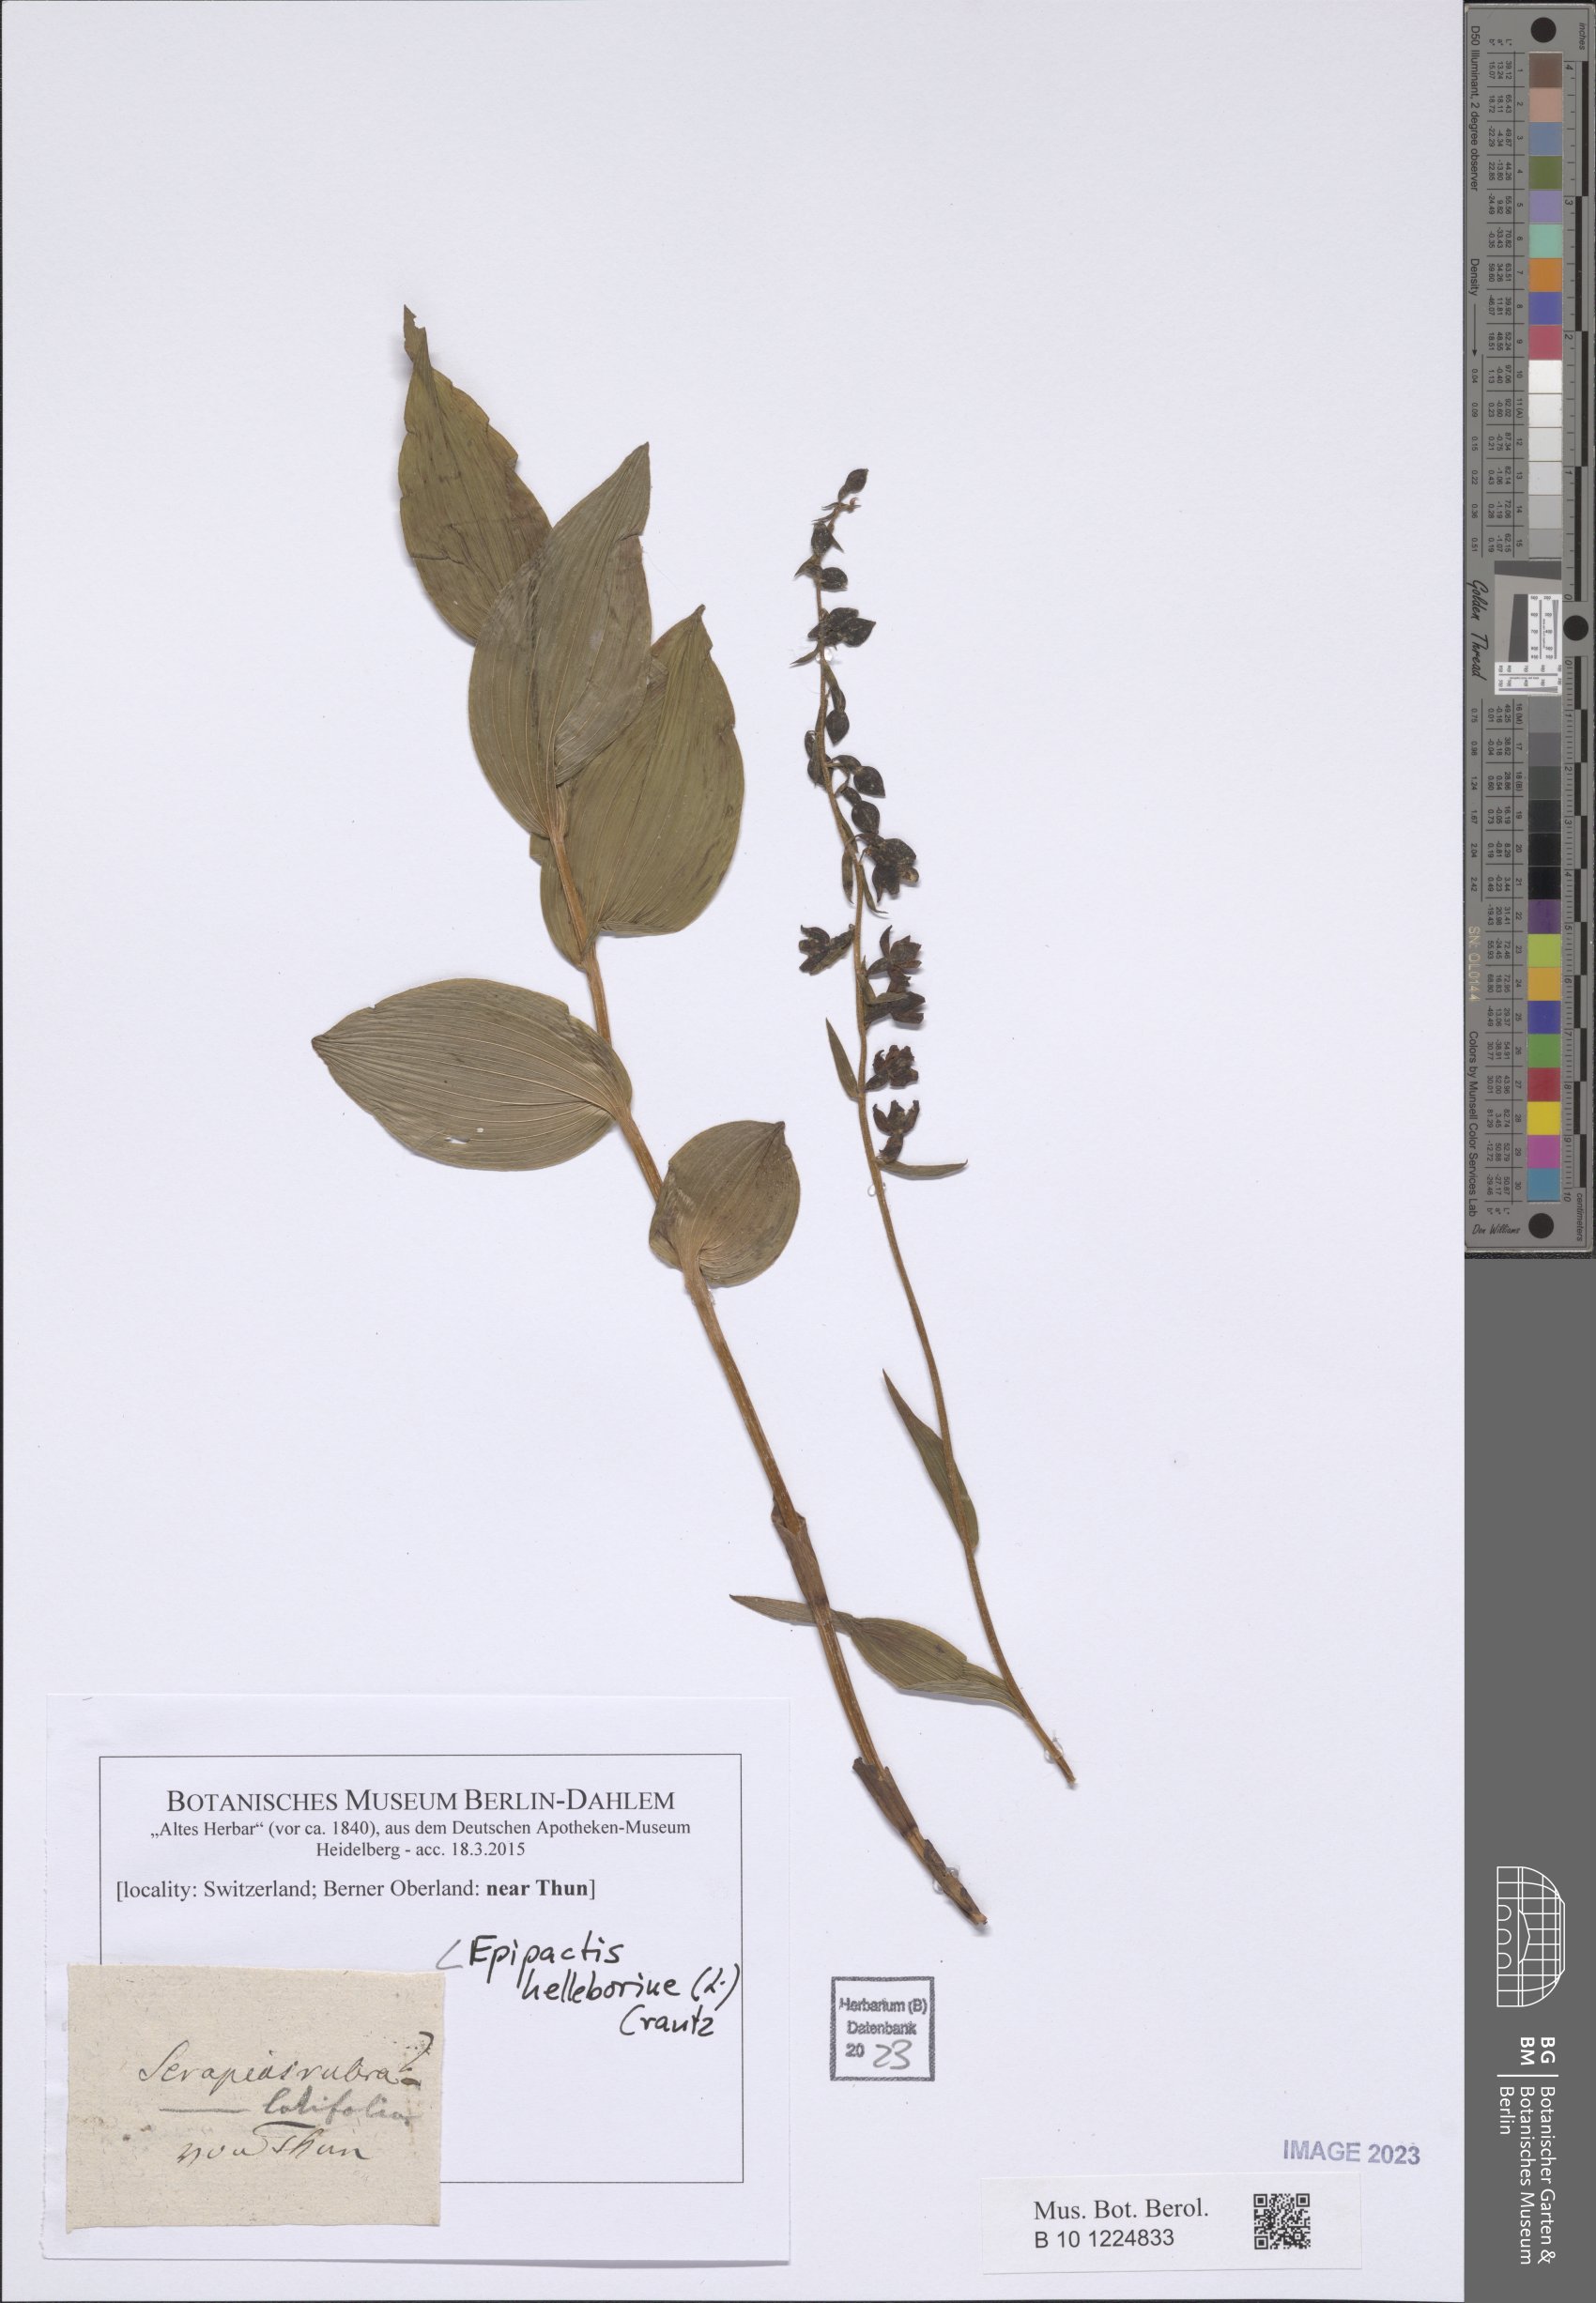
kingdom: Plantae
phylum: Tracheophyta
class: Liliopsida
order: Asparagales
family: Orchidaceae
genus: Epipactis
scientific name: Epipactis helleborine
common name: Broad-leaved helleborine
